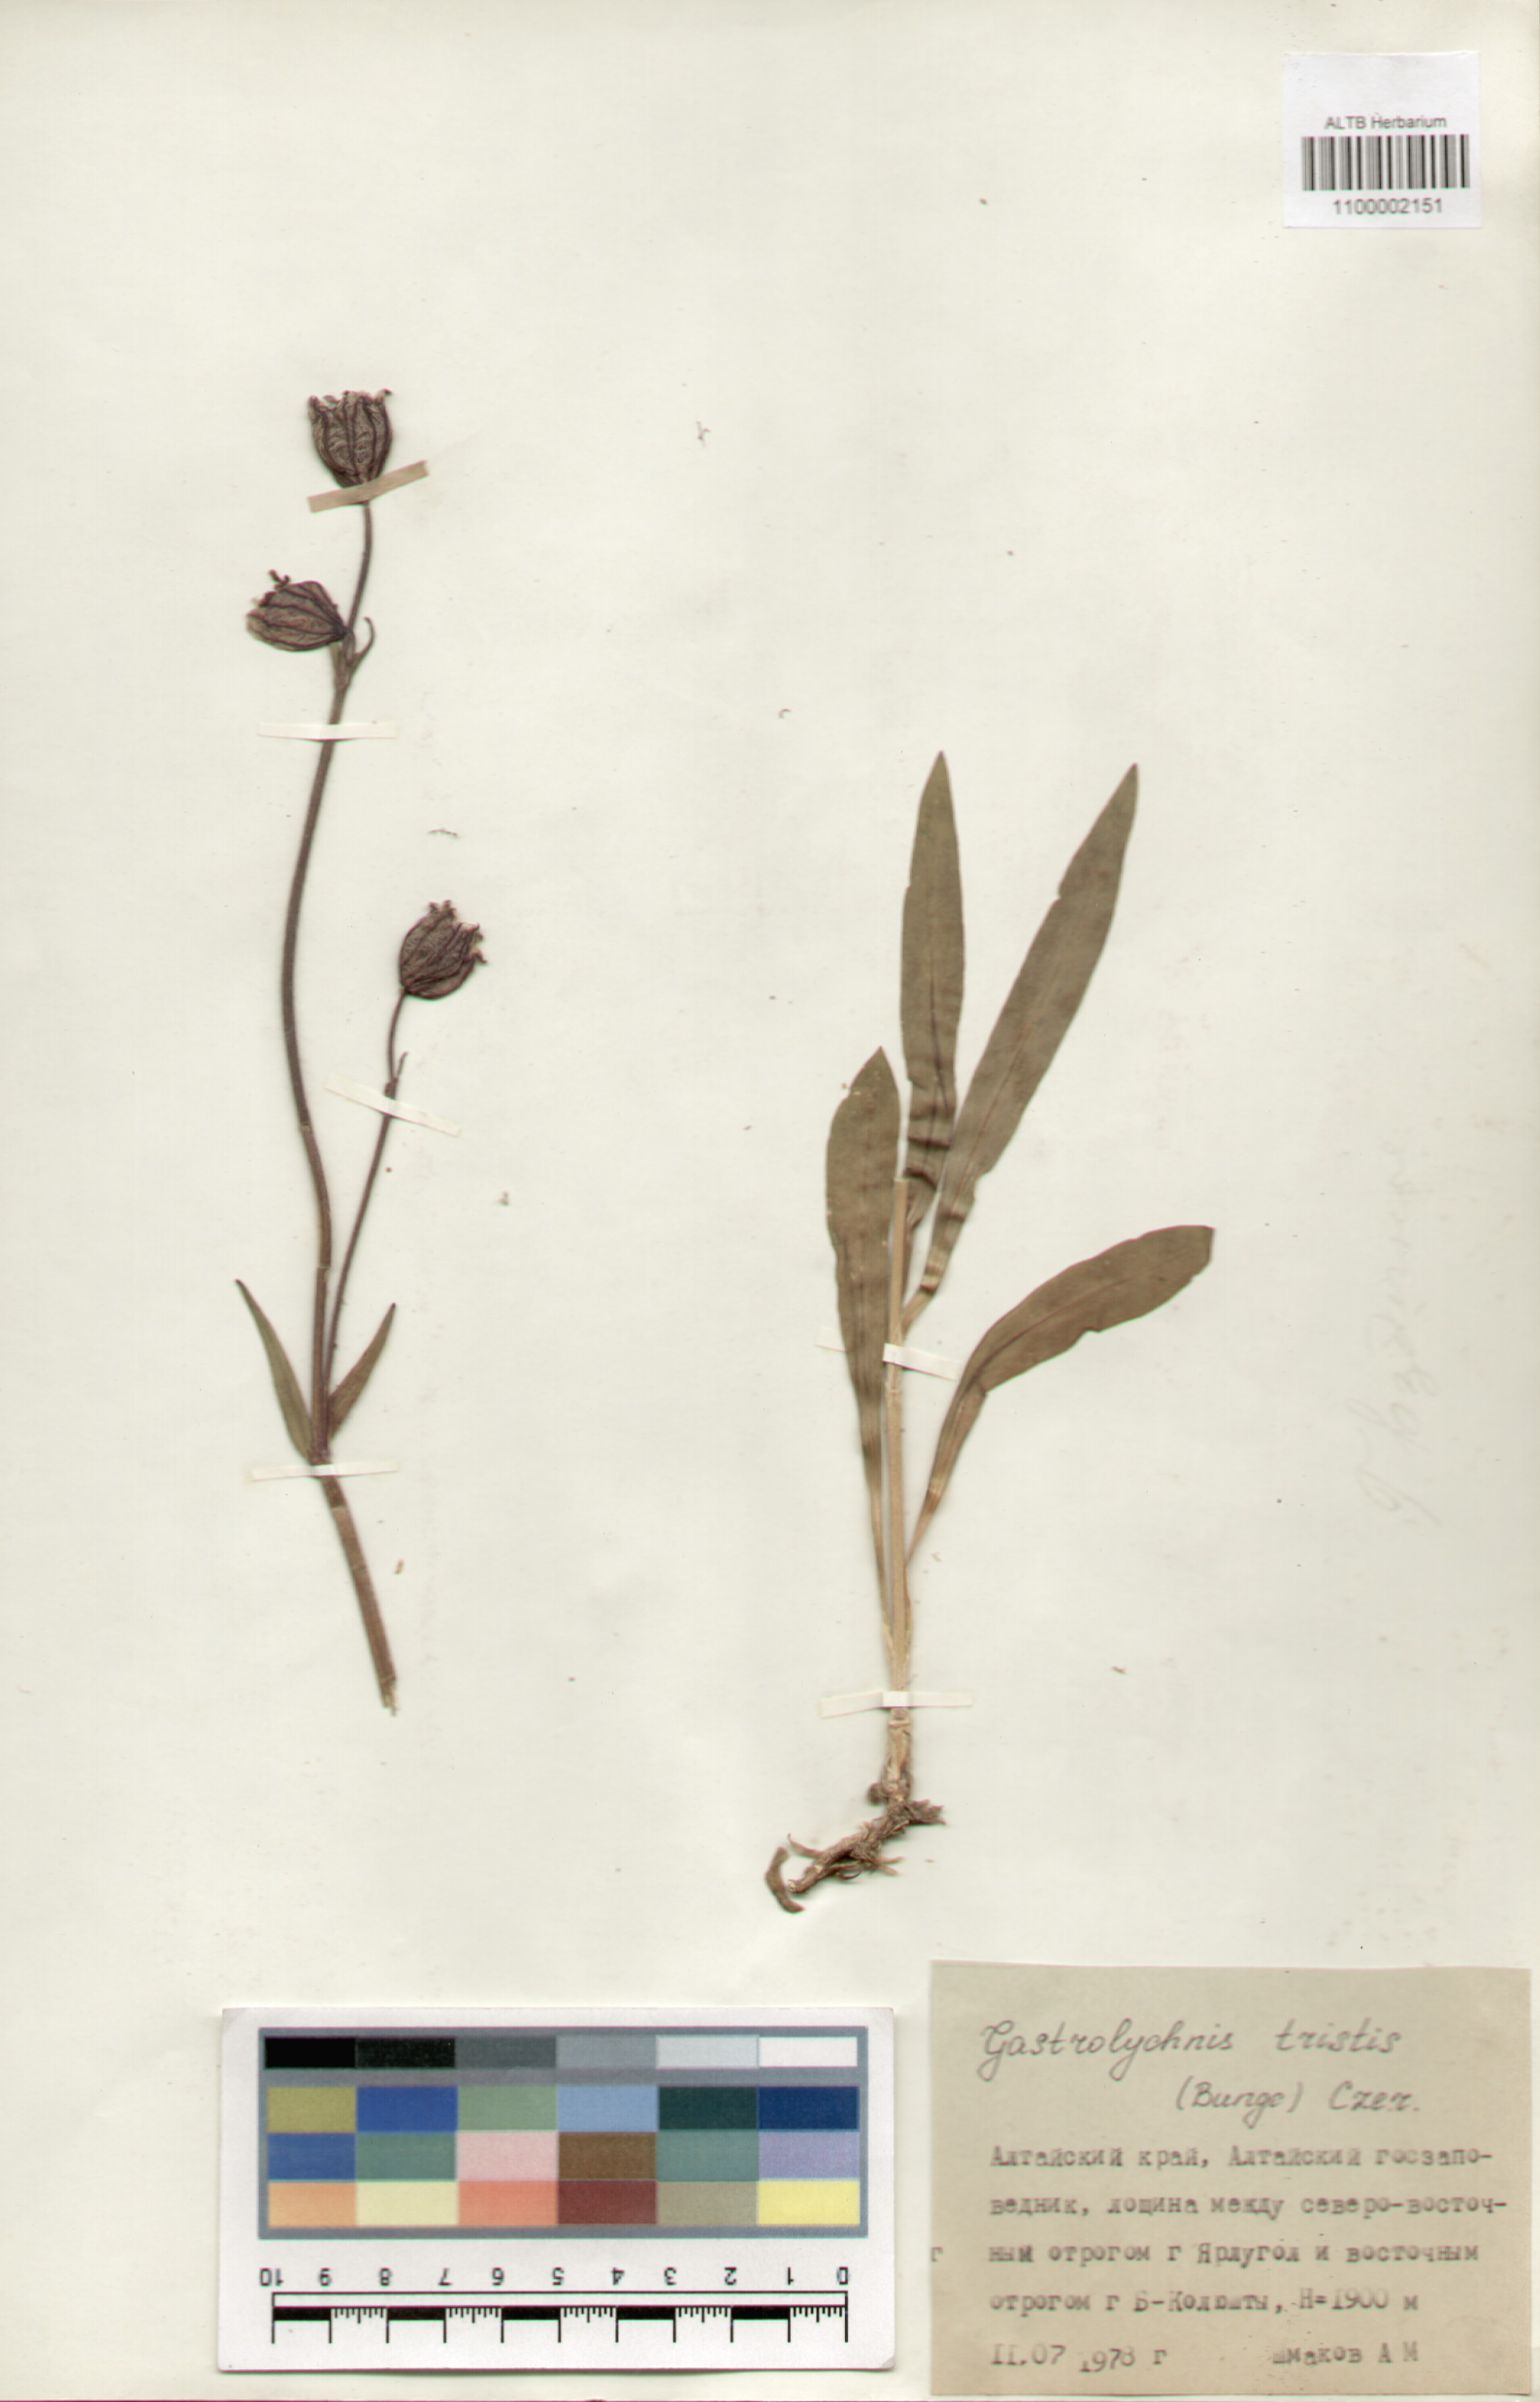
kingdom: Plantae
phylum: Tracheophyta
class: Magnoliopsida
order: Caryophyllales
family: Caryophyllaceae
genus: Silene
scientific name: Silene bungei
